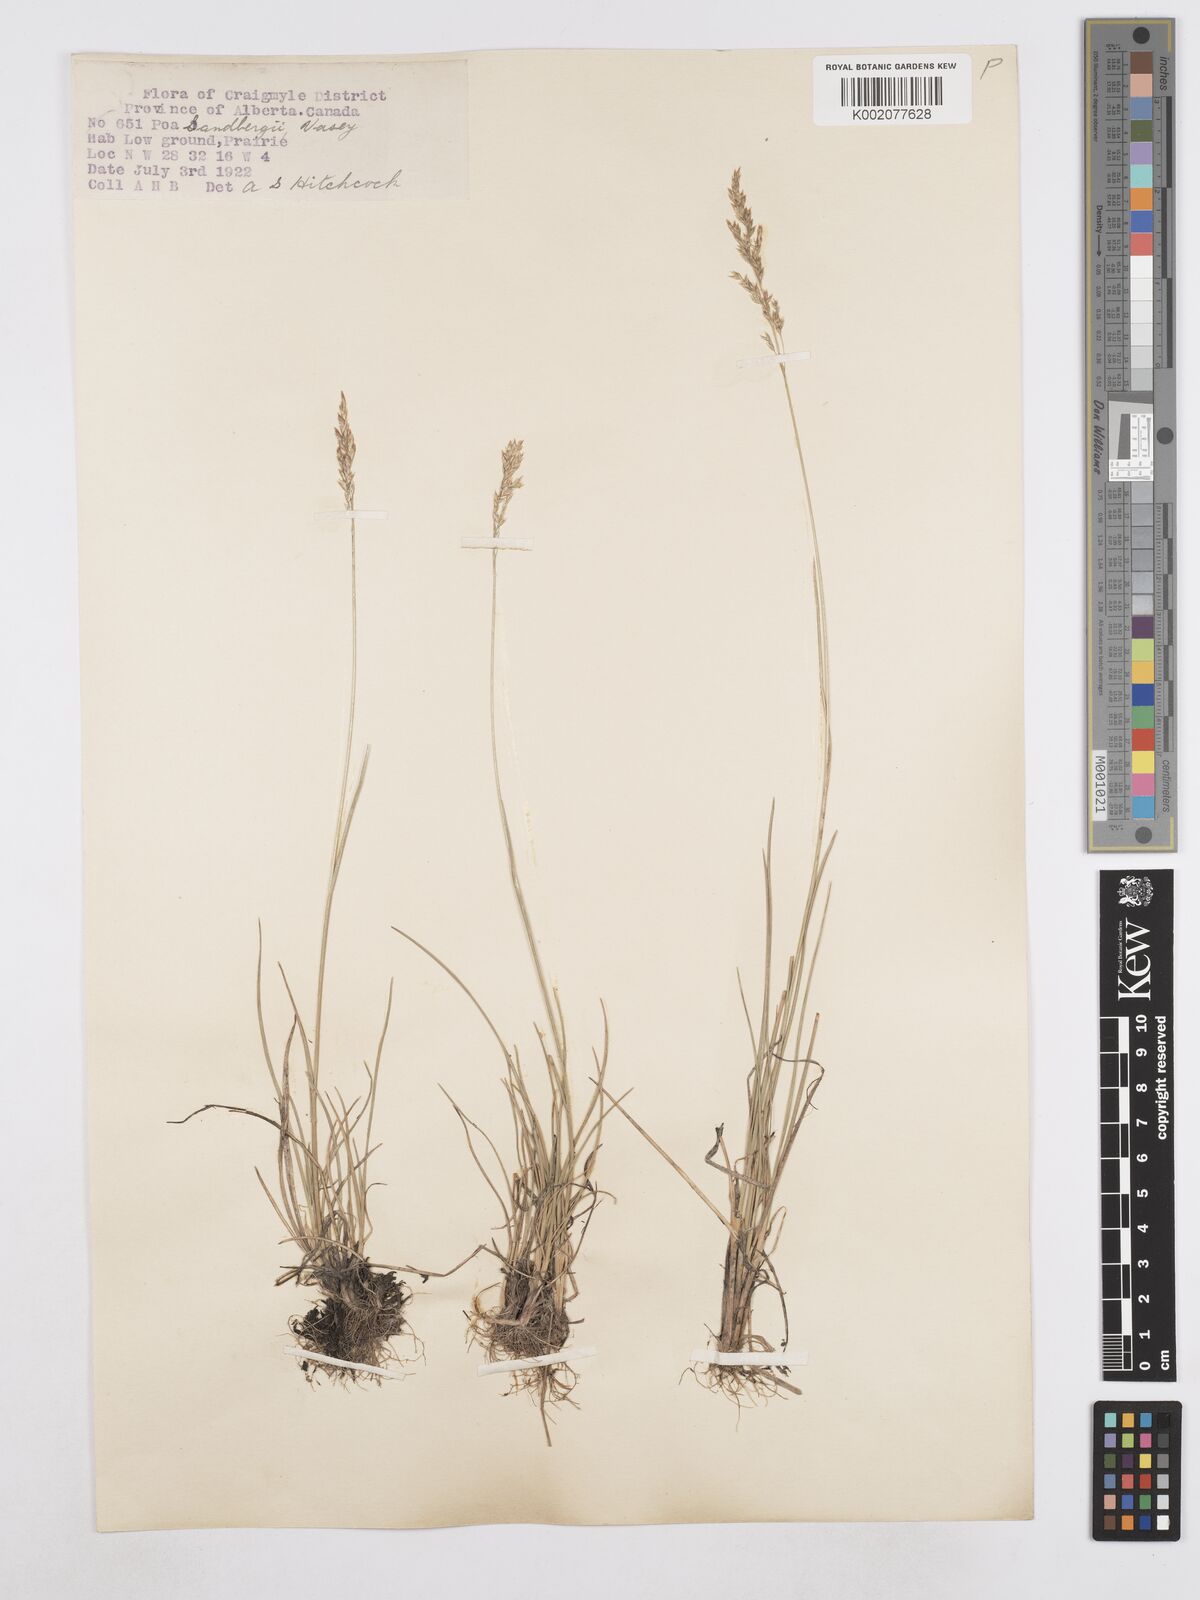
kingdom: Plantae
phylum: Tracheophyta
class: Liliopsida
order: Poales
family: Poaceae
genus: Poa
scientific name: Poa secunda
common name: Sandberg bluegrass
